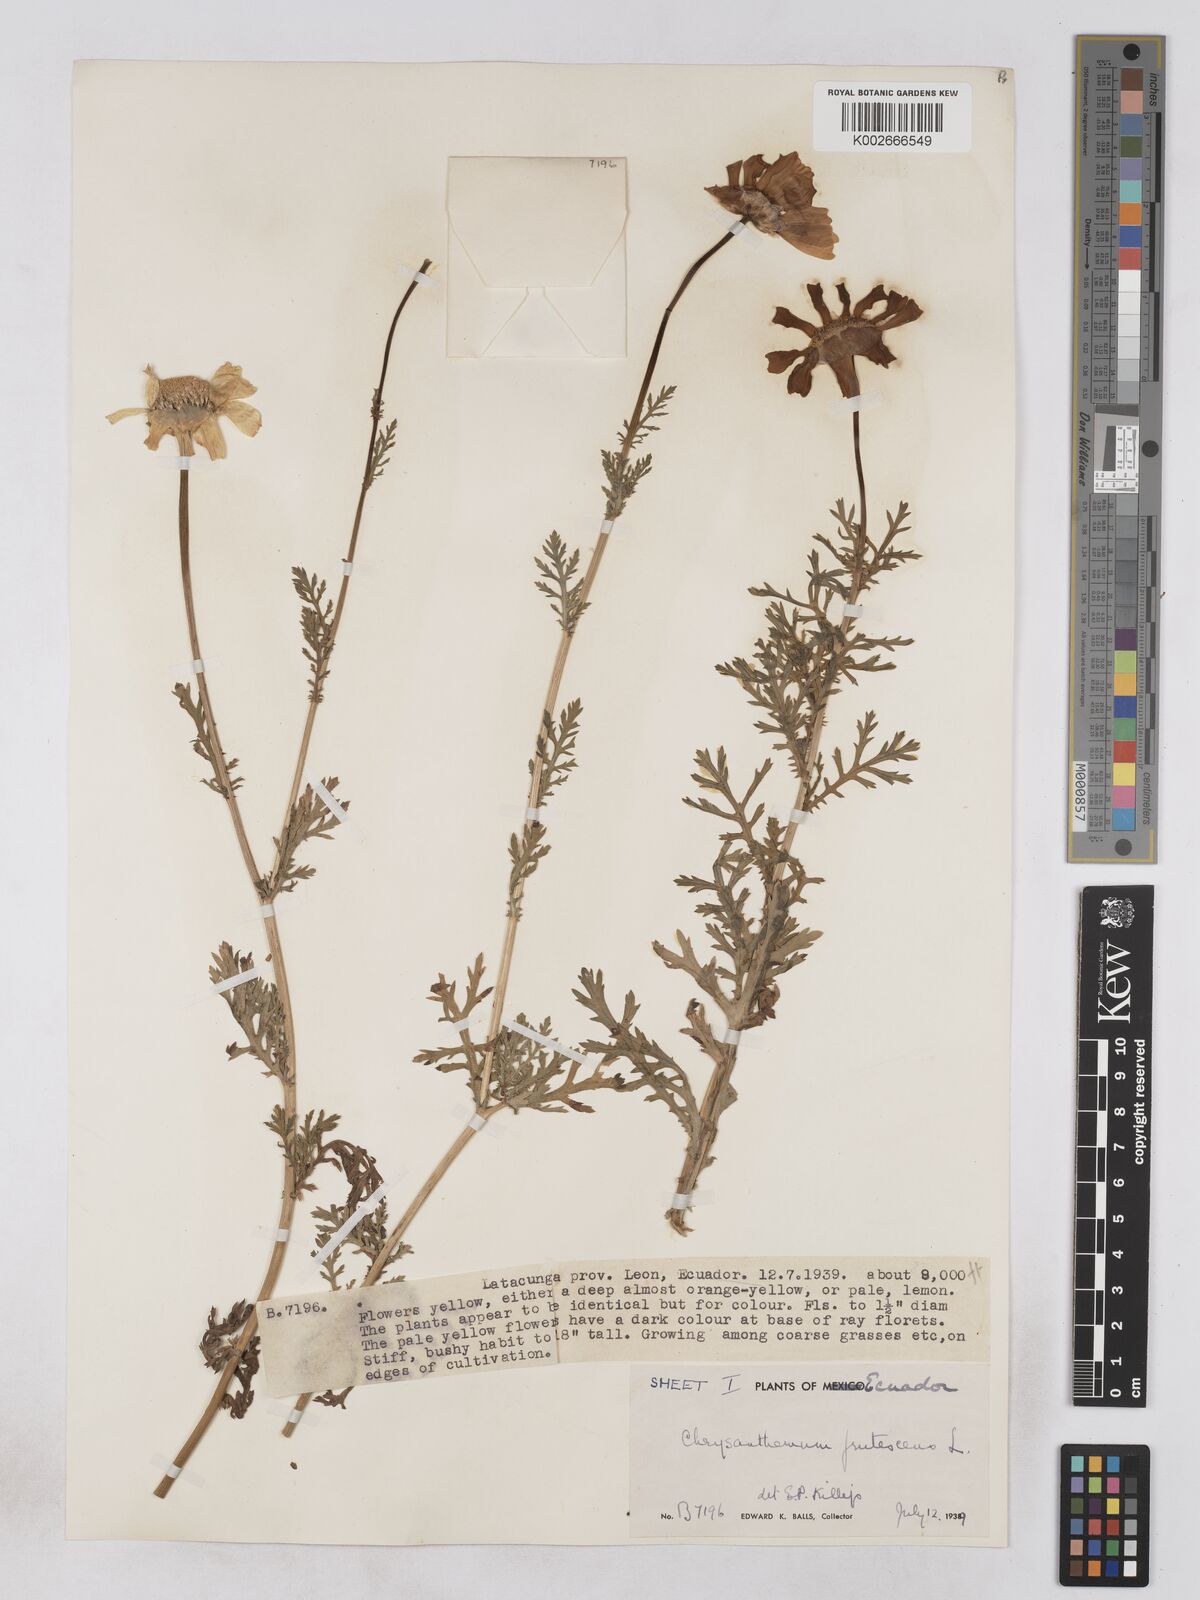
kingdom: Plantae
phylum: Tracheophyta
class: Magnoliopsida
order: Asterales
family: Asteraceae
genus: Argyranthemum
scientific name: Argyranthemum frutescens
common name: Paris daisy
